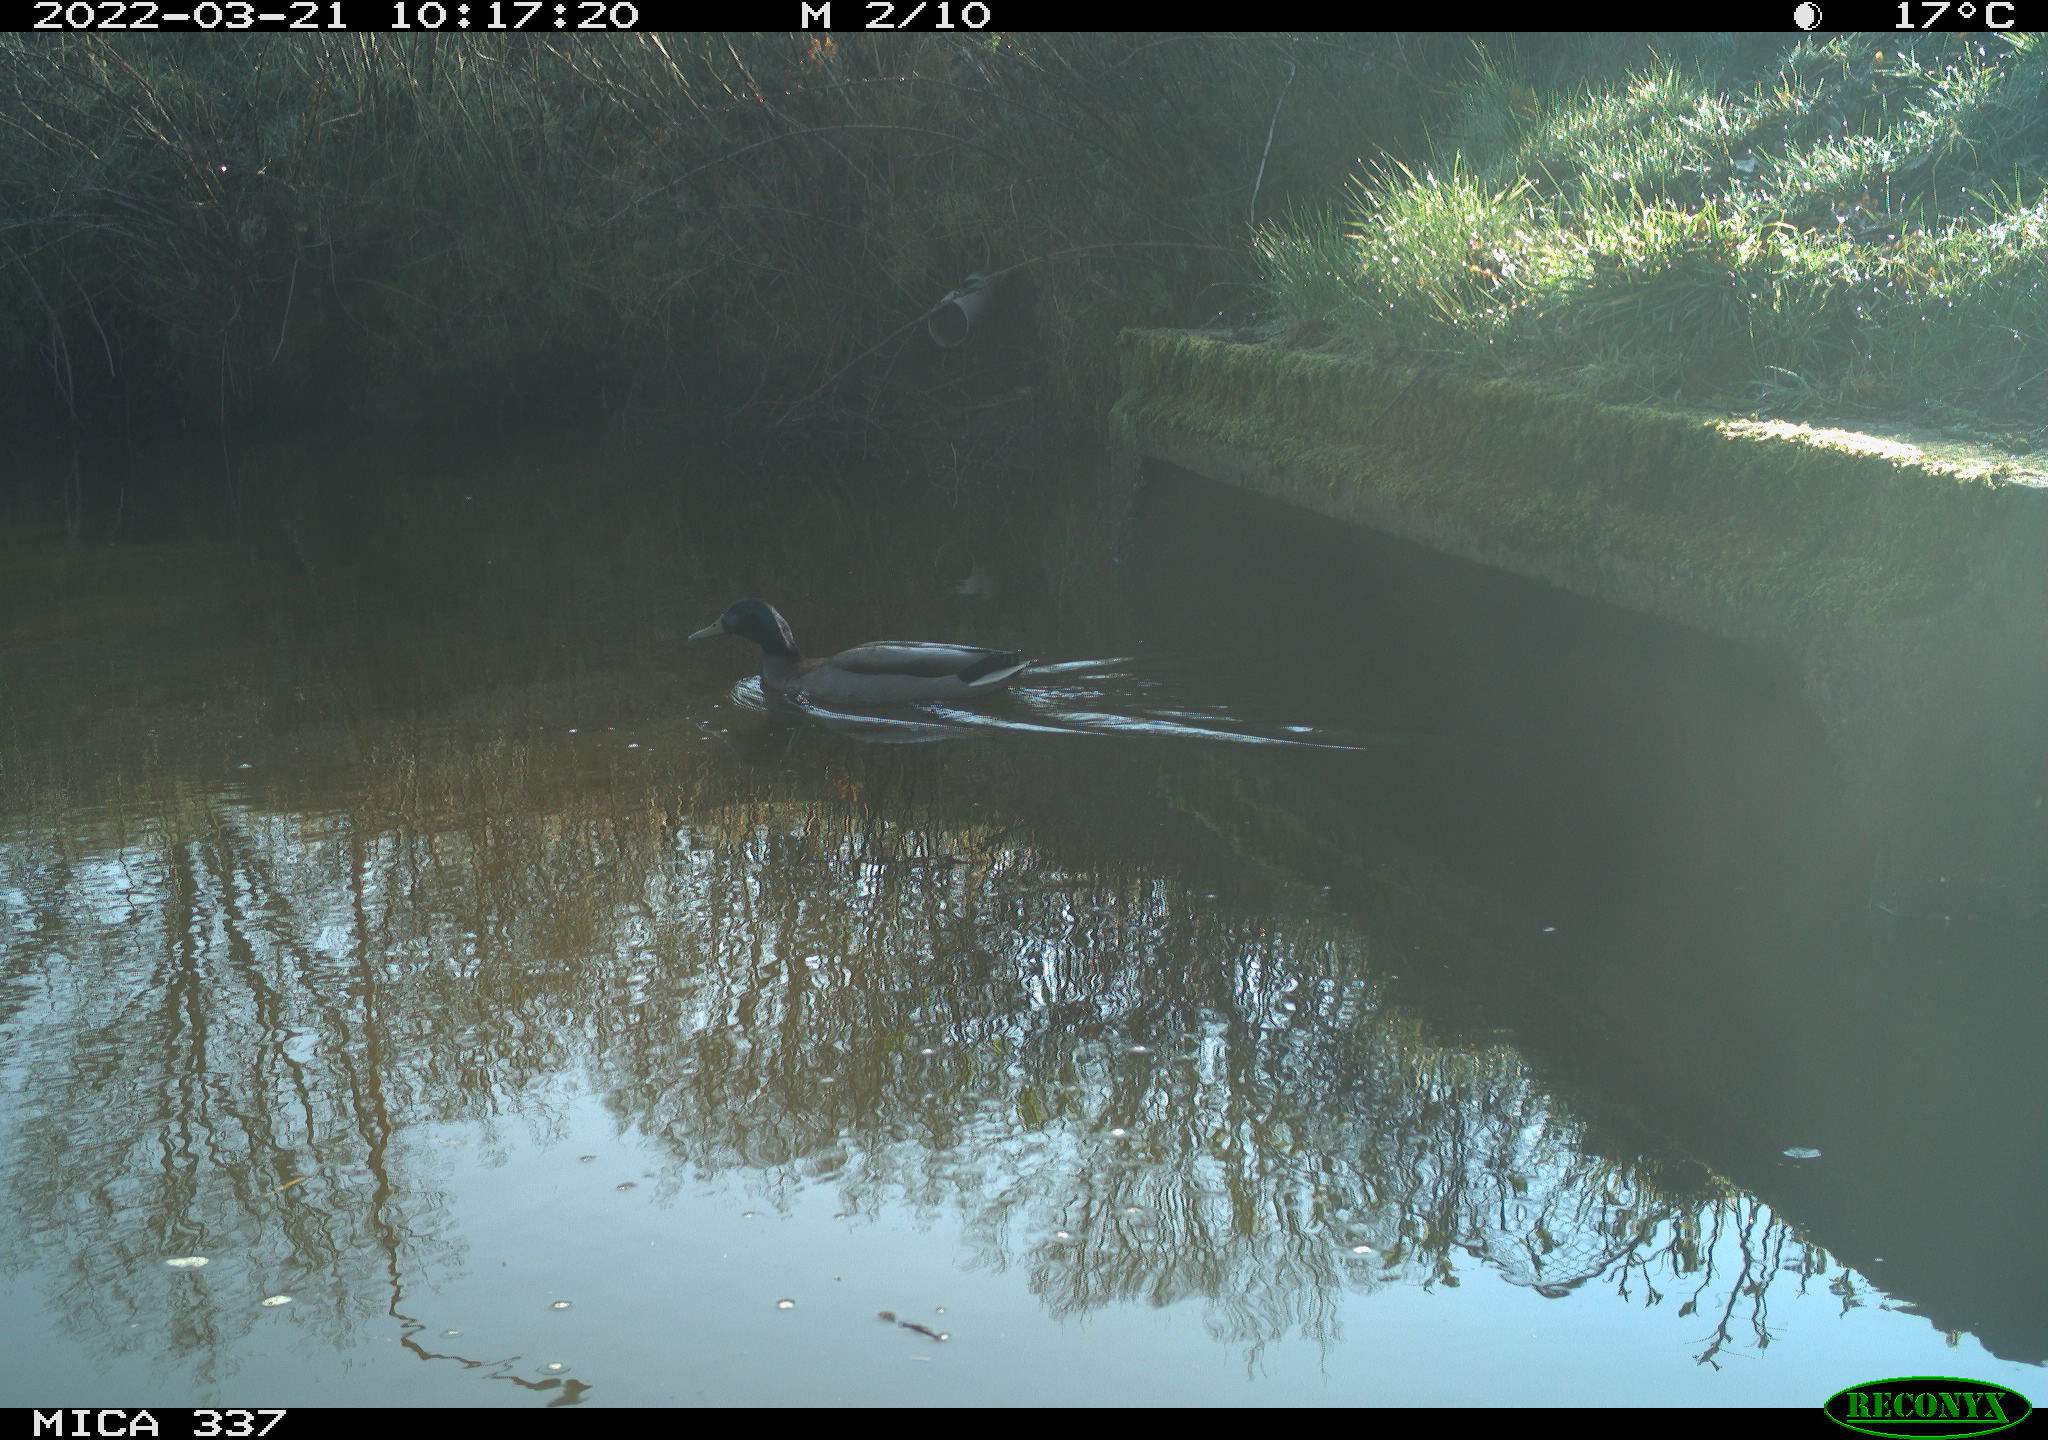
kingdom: Animalia
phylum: Chordata
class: Aves
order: Anseriformes
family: Anatidae
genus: Anas
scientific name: Anas platyrhynchos
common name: Mallard
